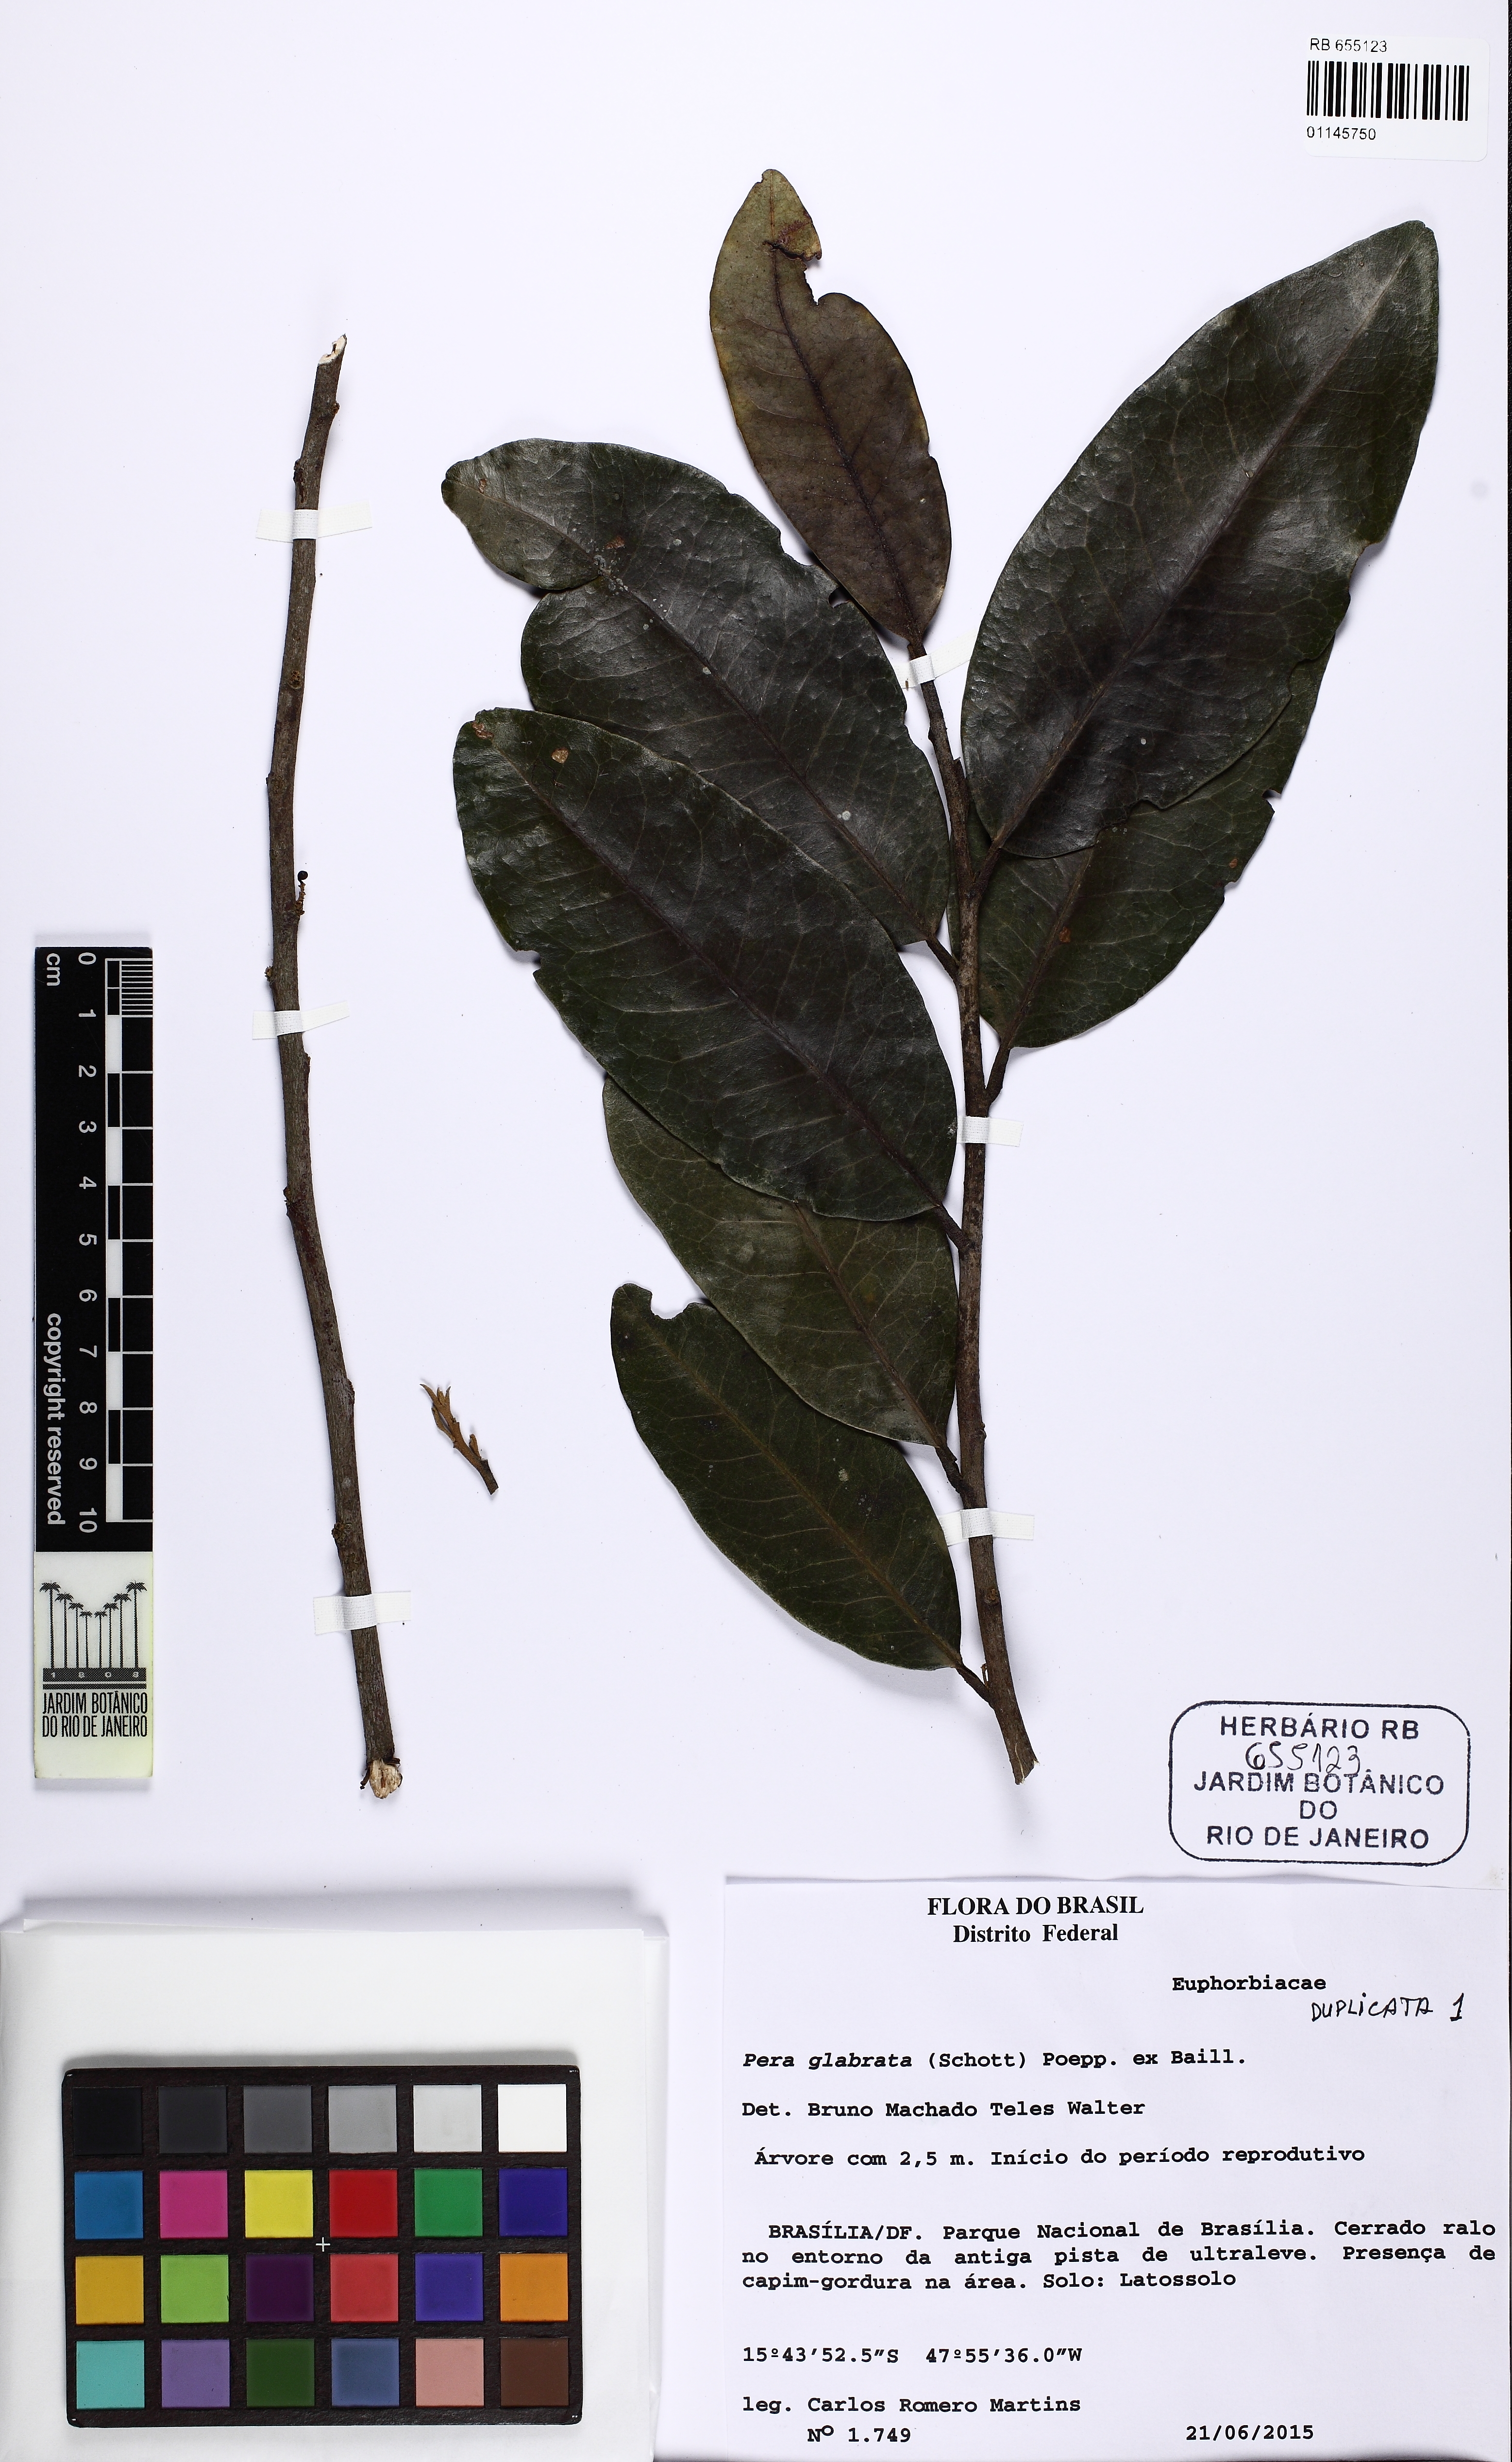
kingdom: Plantae
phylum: Tracheophyta
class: Magnoliopsida
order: Malpighiales
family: Peraceae
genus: Pera
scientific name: Pera glabrata
